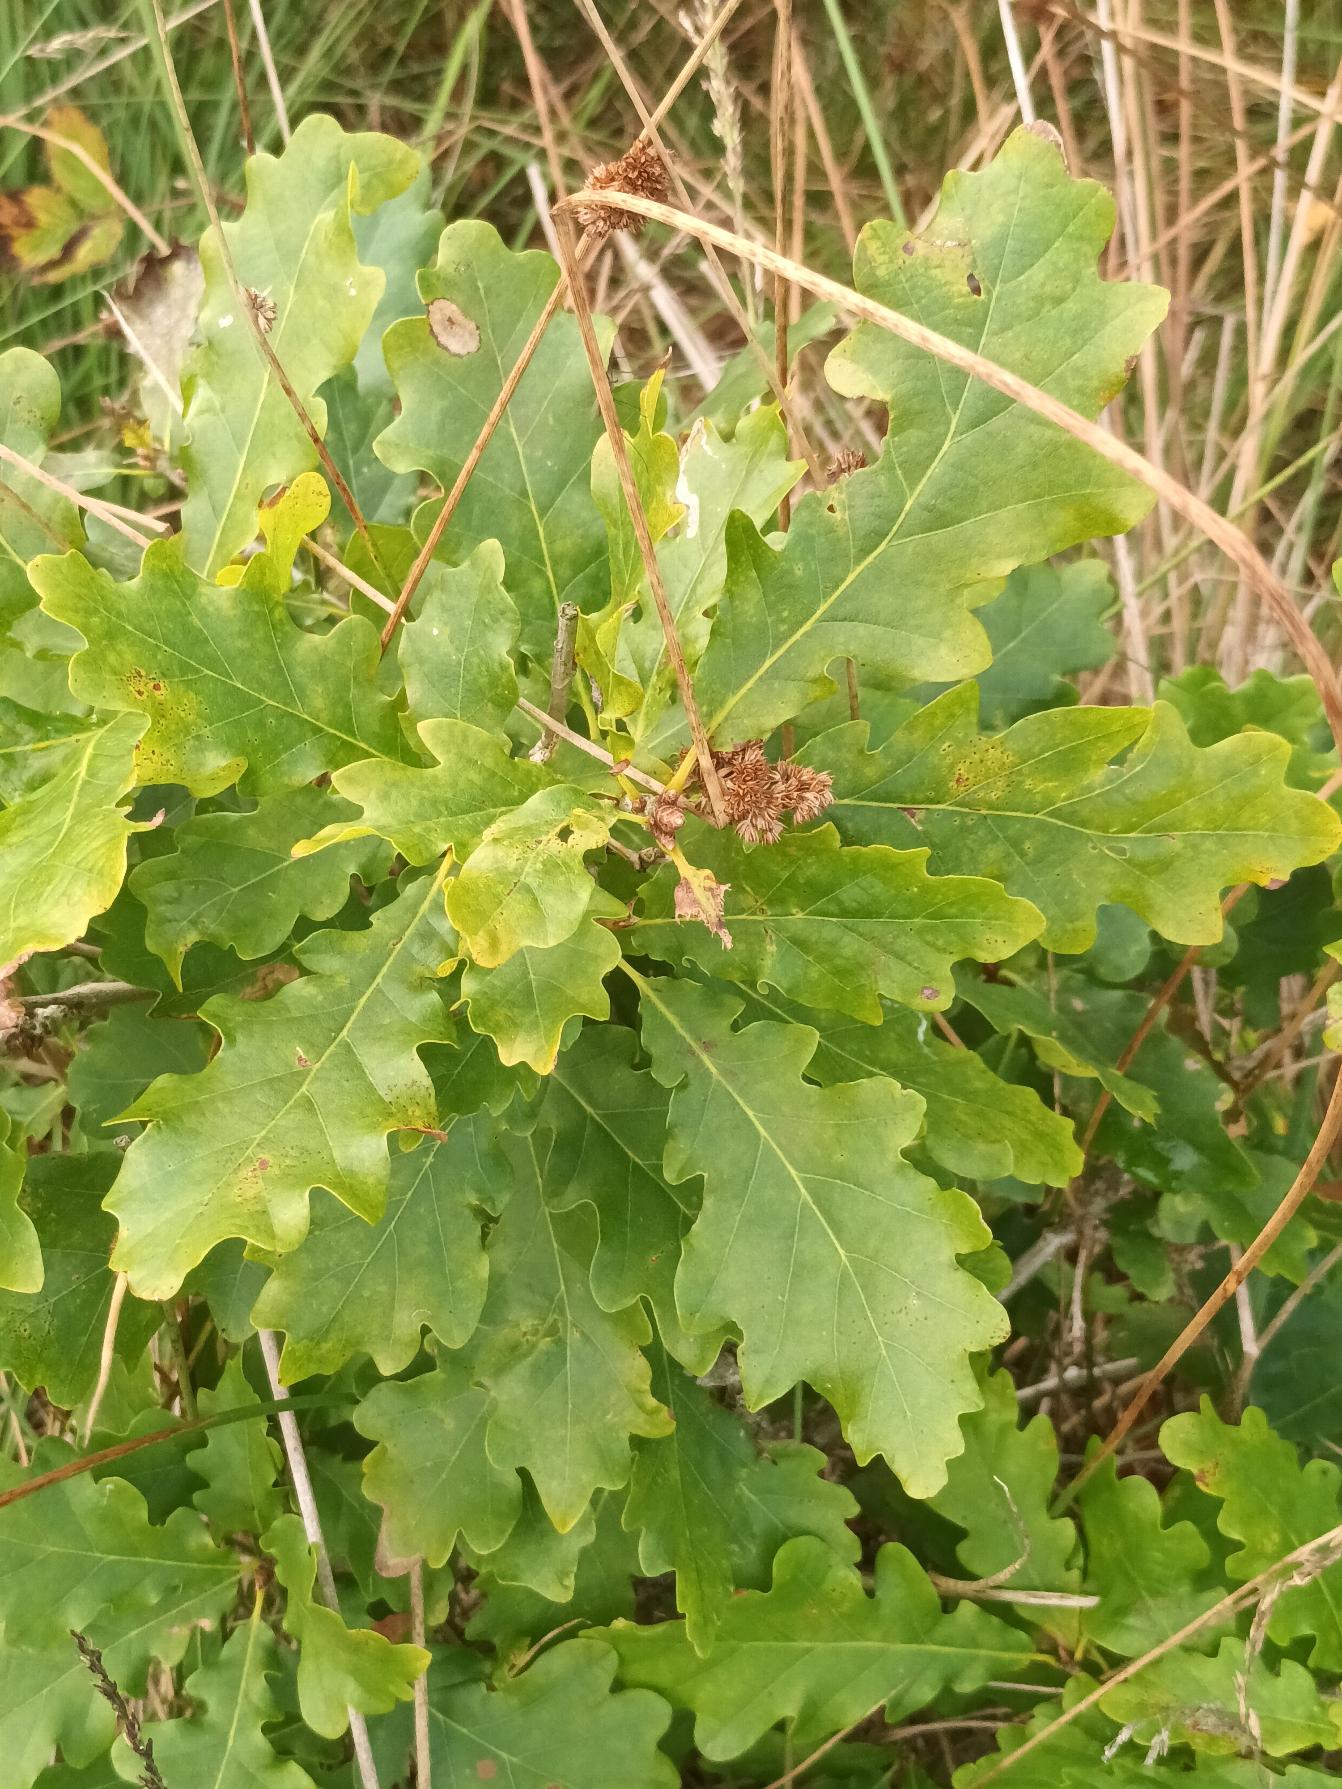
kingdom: Plantae
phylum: Tracheophyta
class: Magnoliopsida
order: Fagales
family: Fagaceae
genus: Quercus
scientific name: Quercus robur
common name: Stilk-eg/almindelig eg
